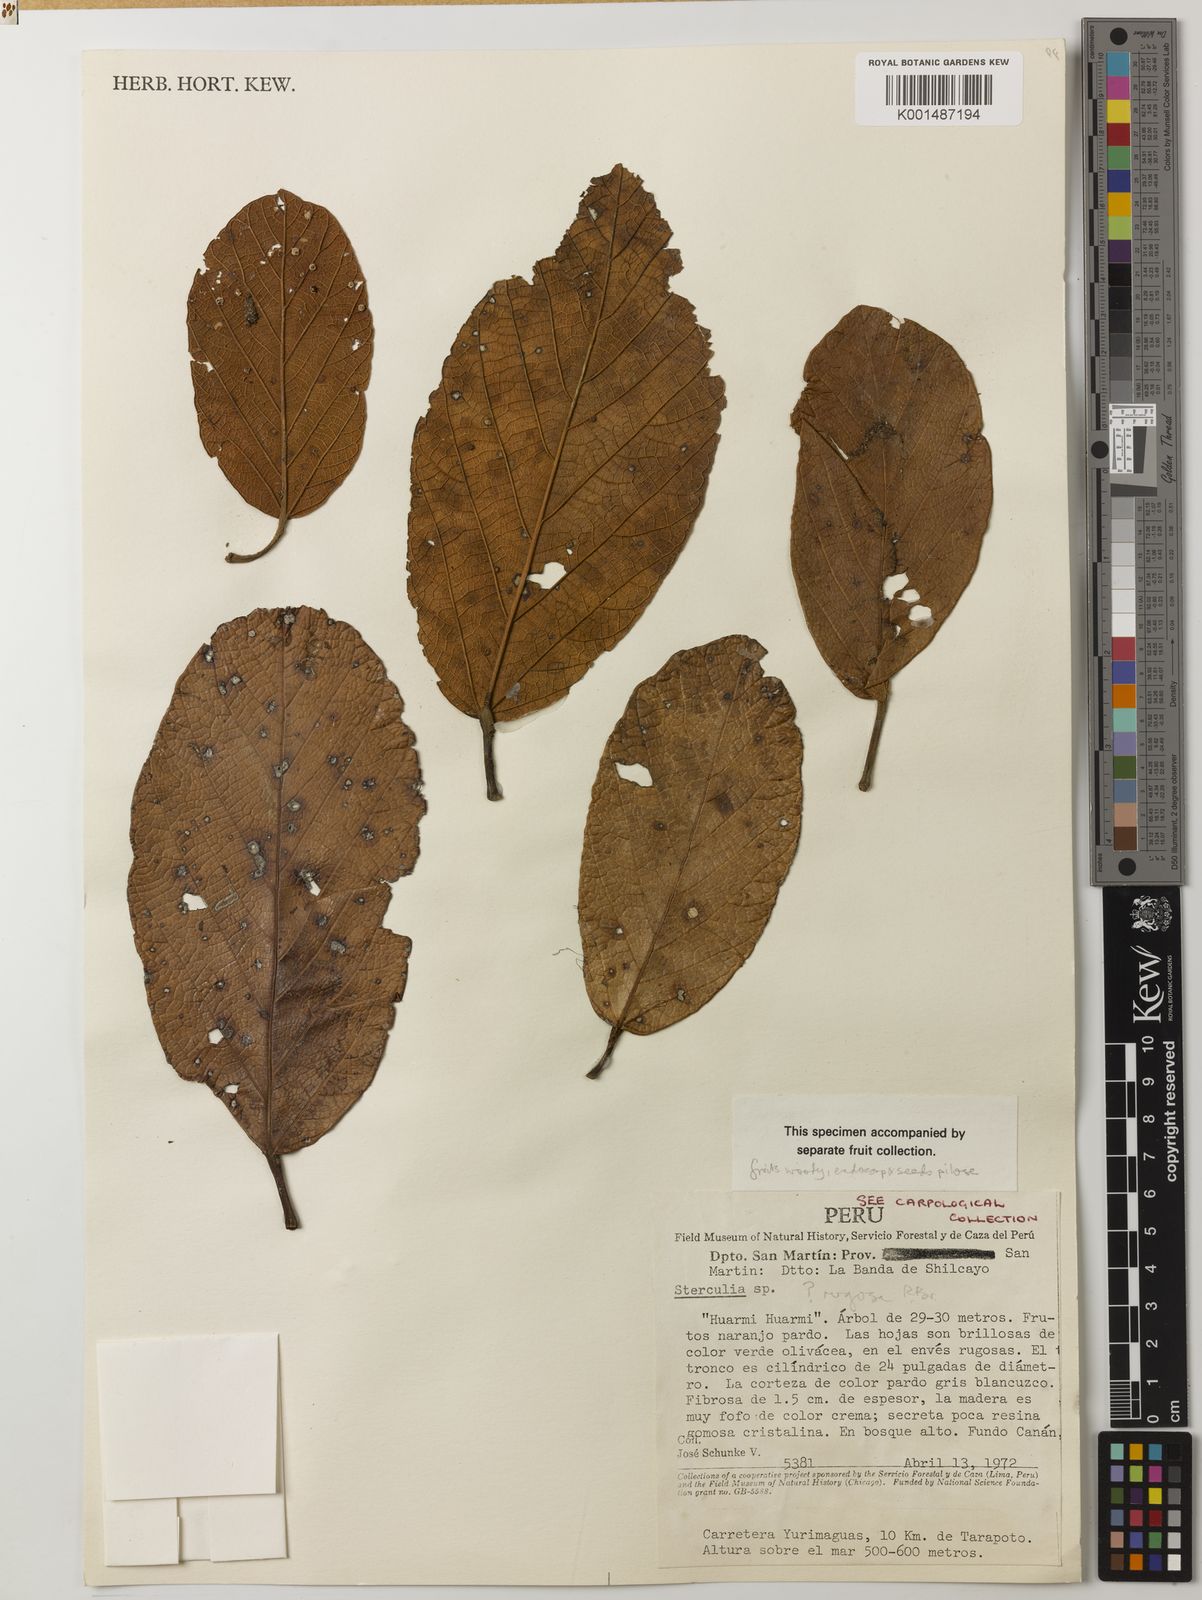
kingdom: Plantae
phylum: Tracheophyta
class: Magnoliopsida
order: Malvales
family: Malvaceae
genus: Sterculia
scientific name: Sterculia rugosa
